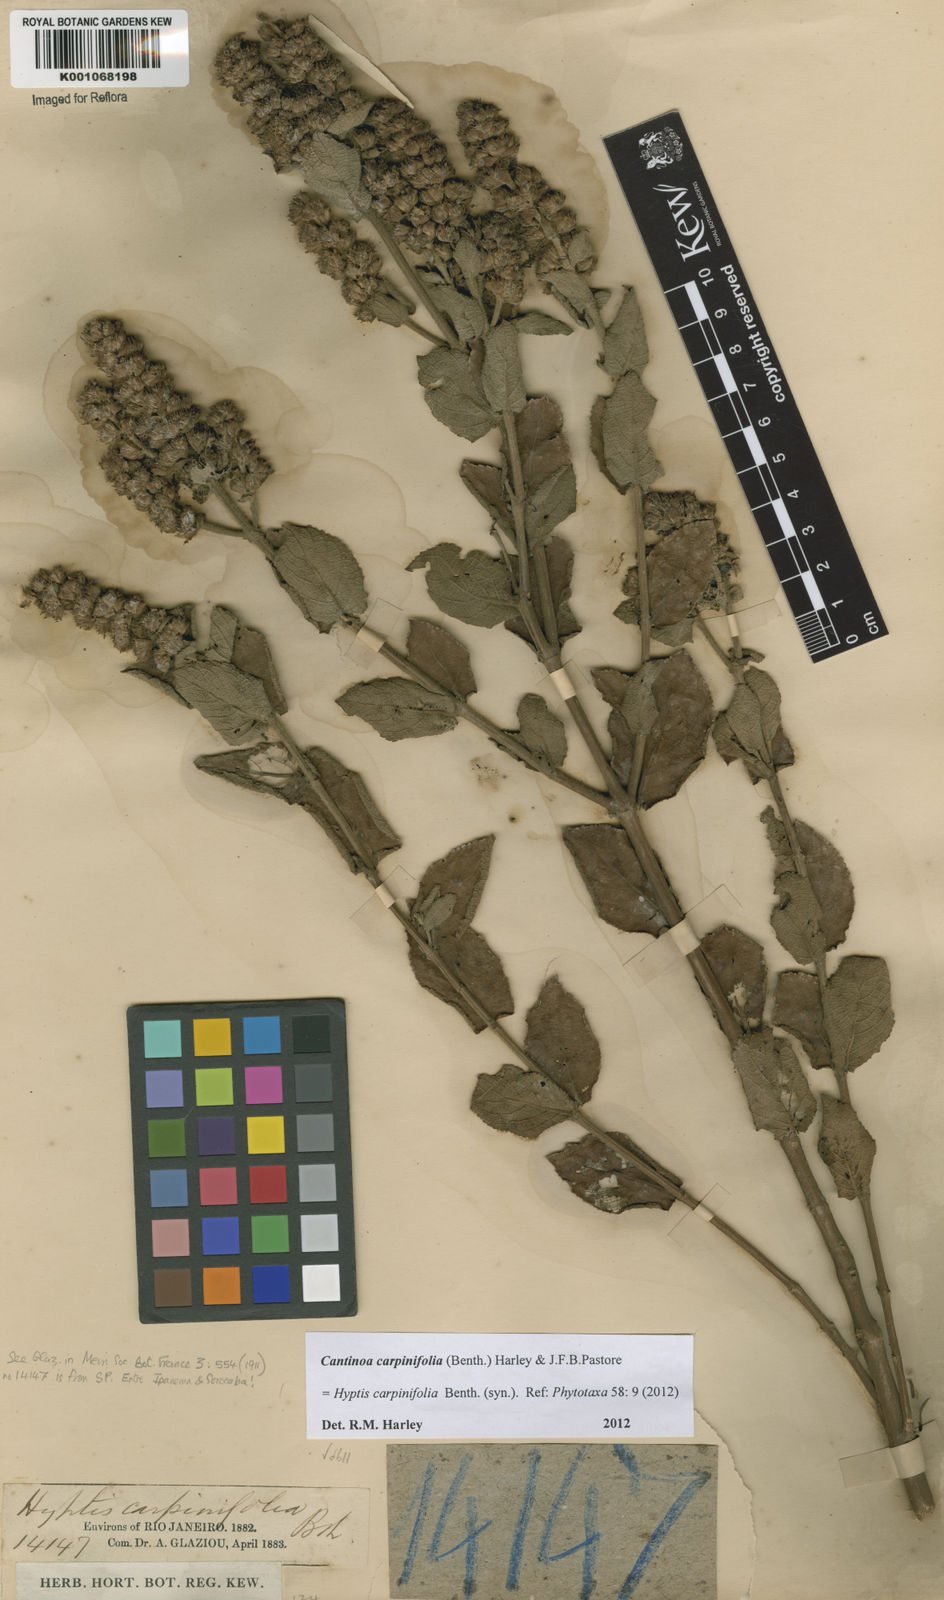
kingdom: Plantae
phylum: Tracheophyta
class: Magnoliopsida
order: Lamiales
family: Lamiaceae
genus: Cantinoa
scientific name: Cantinoa carpinifolia
